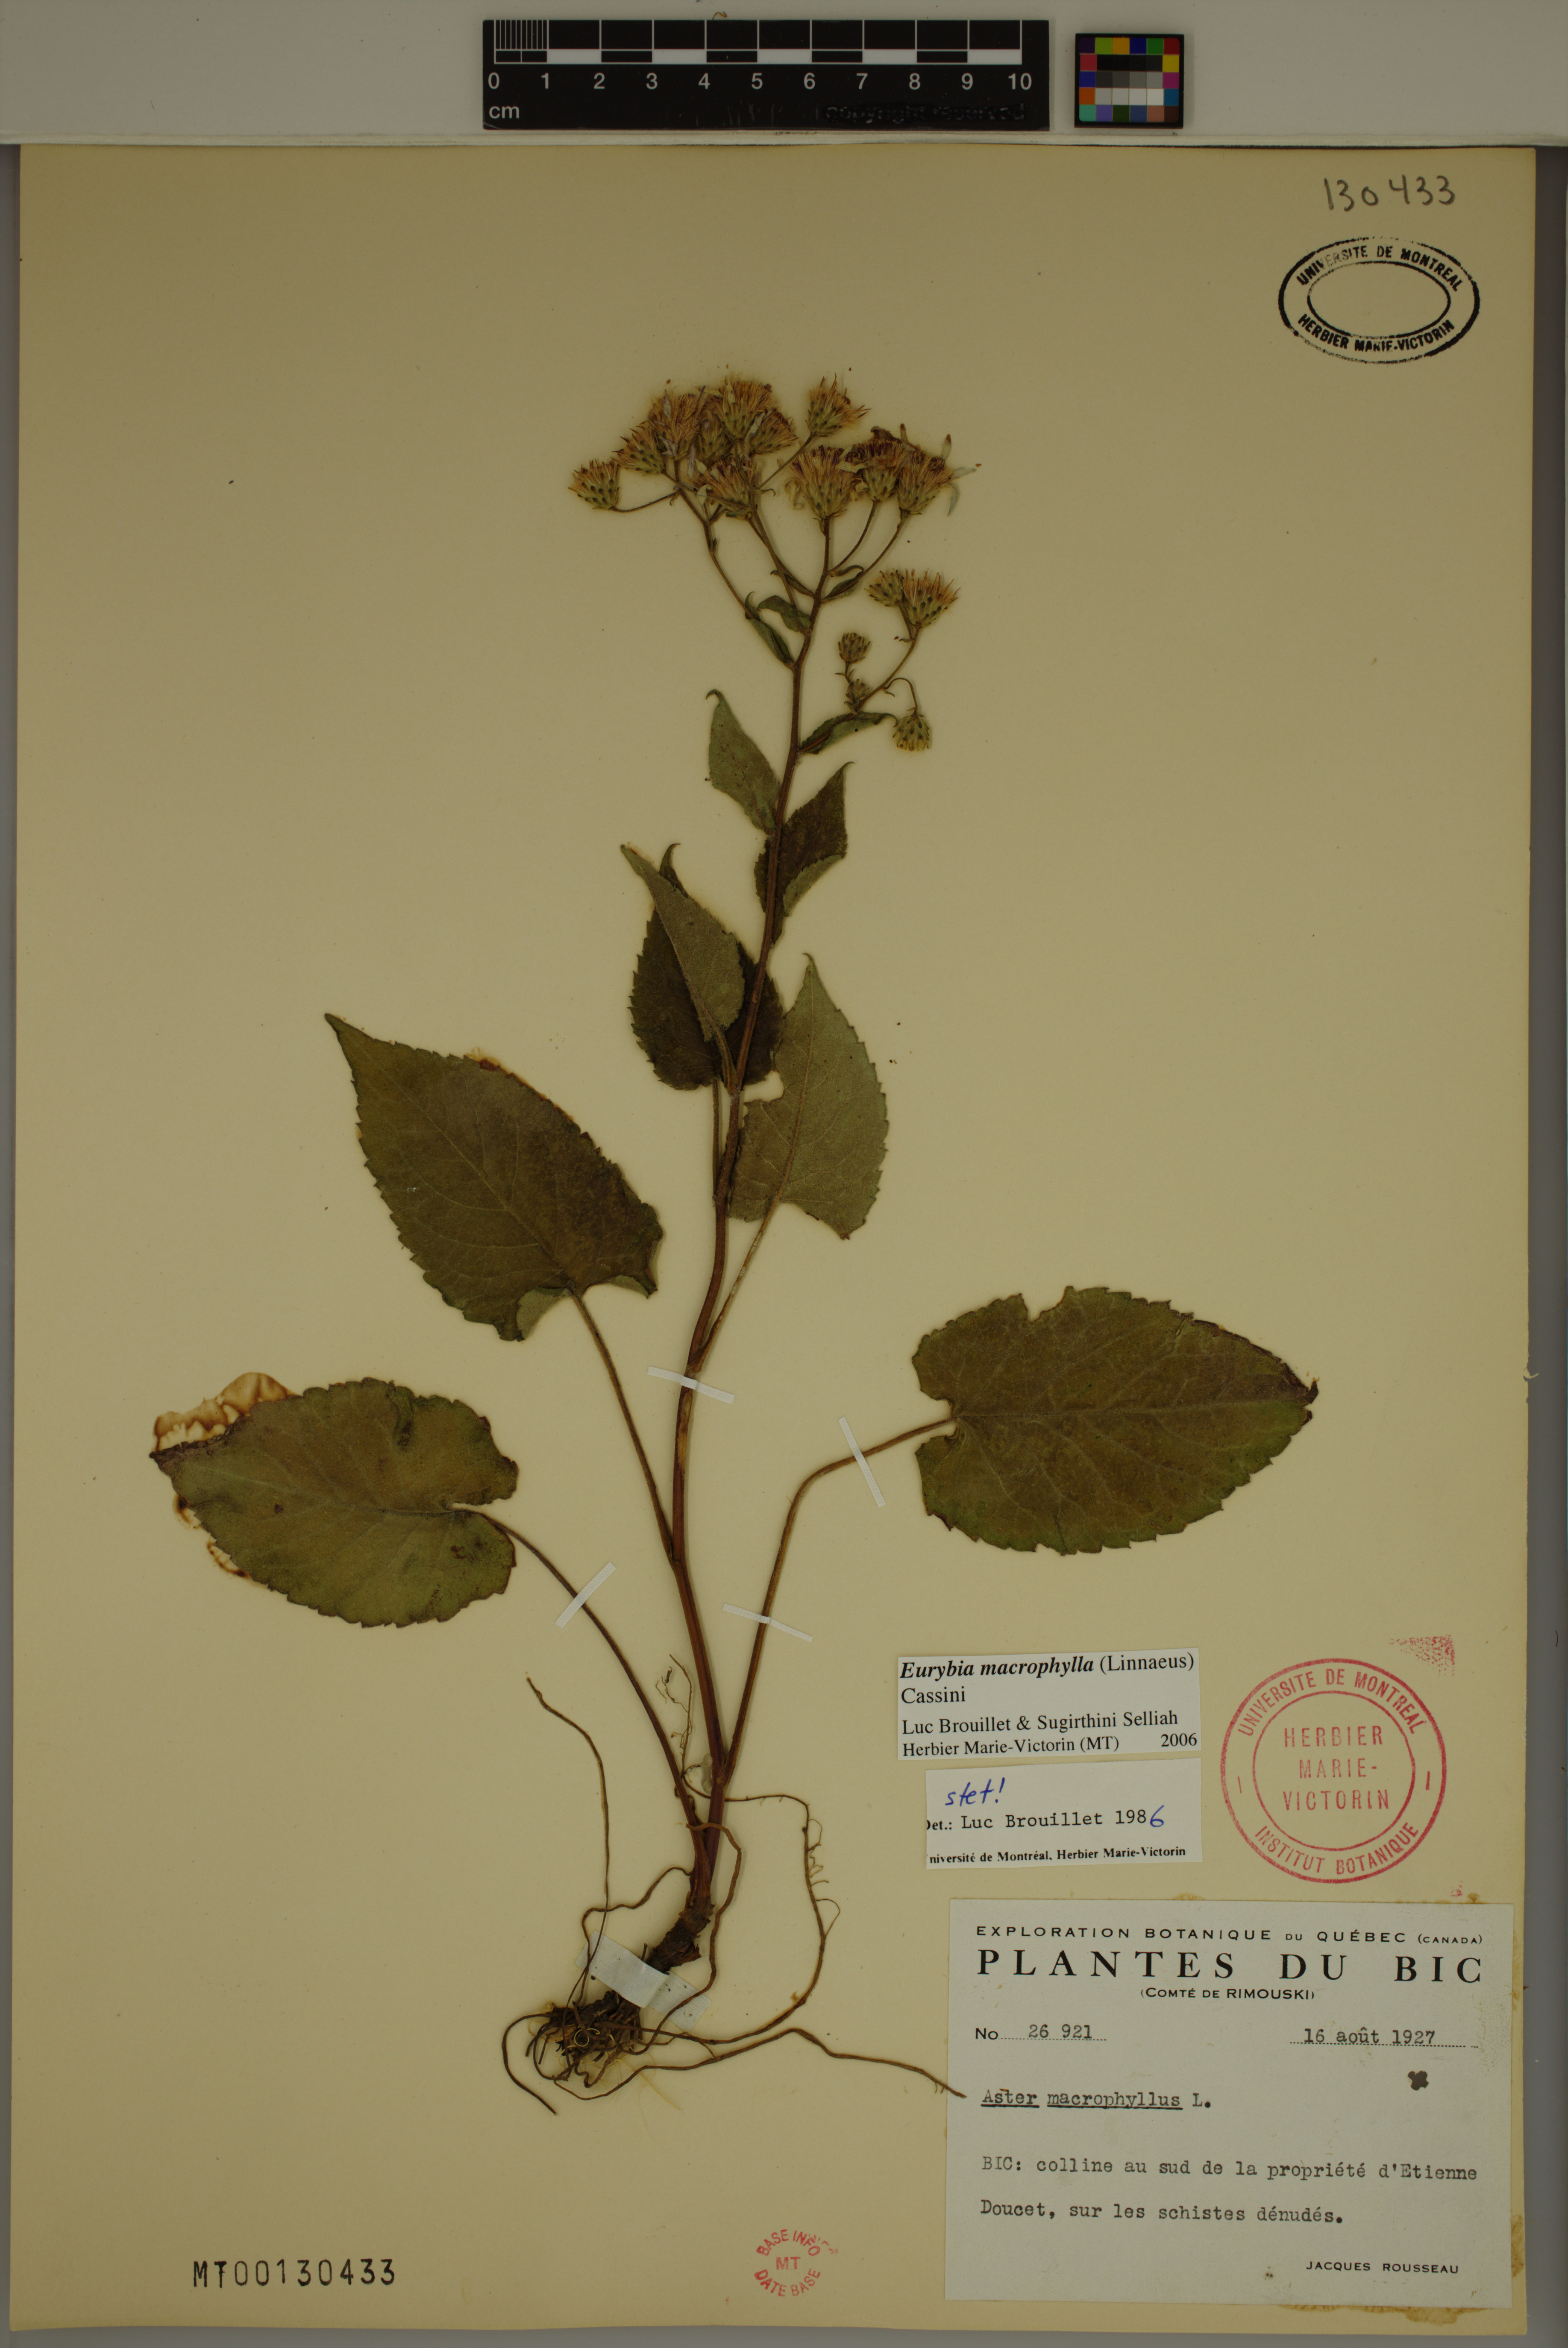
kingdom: Plantae
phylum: Tracheophyta
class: Magnoliopsida
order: Asterales
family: Asteraceae
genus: Eurybia
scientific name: Eurybia macrophylla
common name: Big-leaved aster
